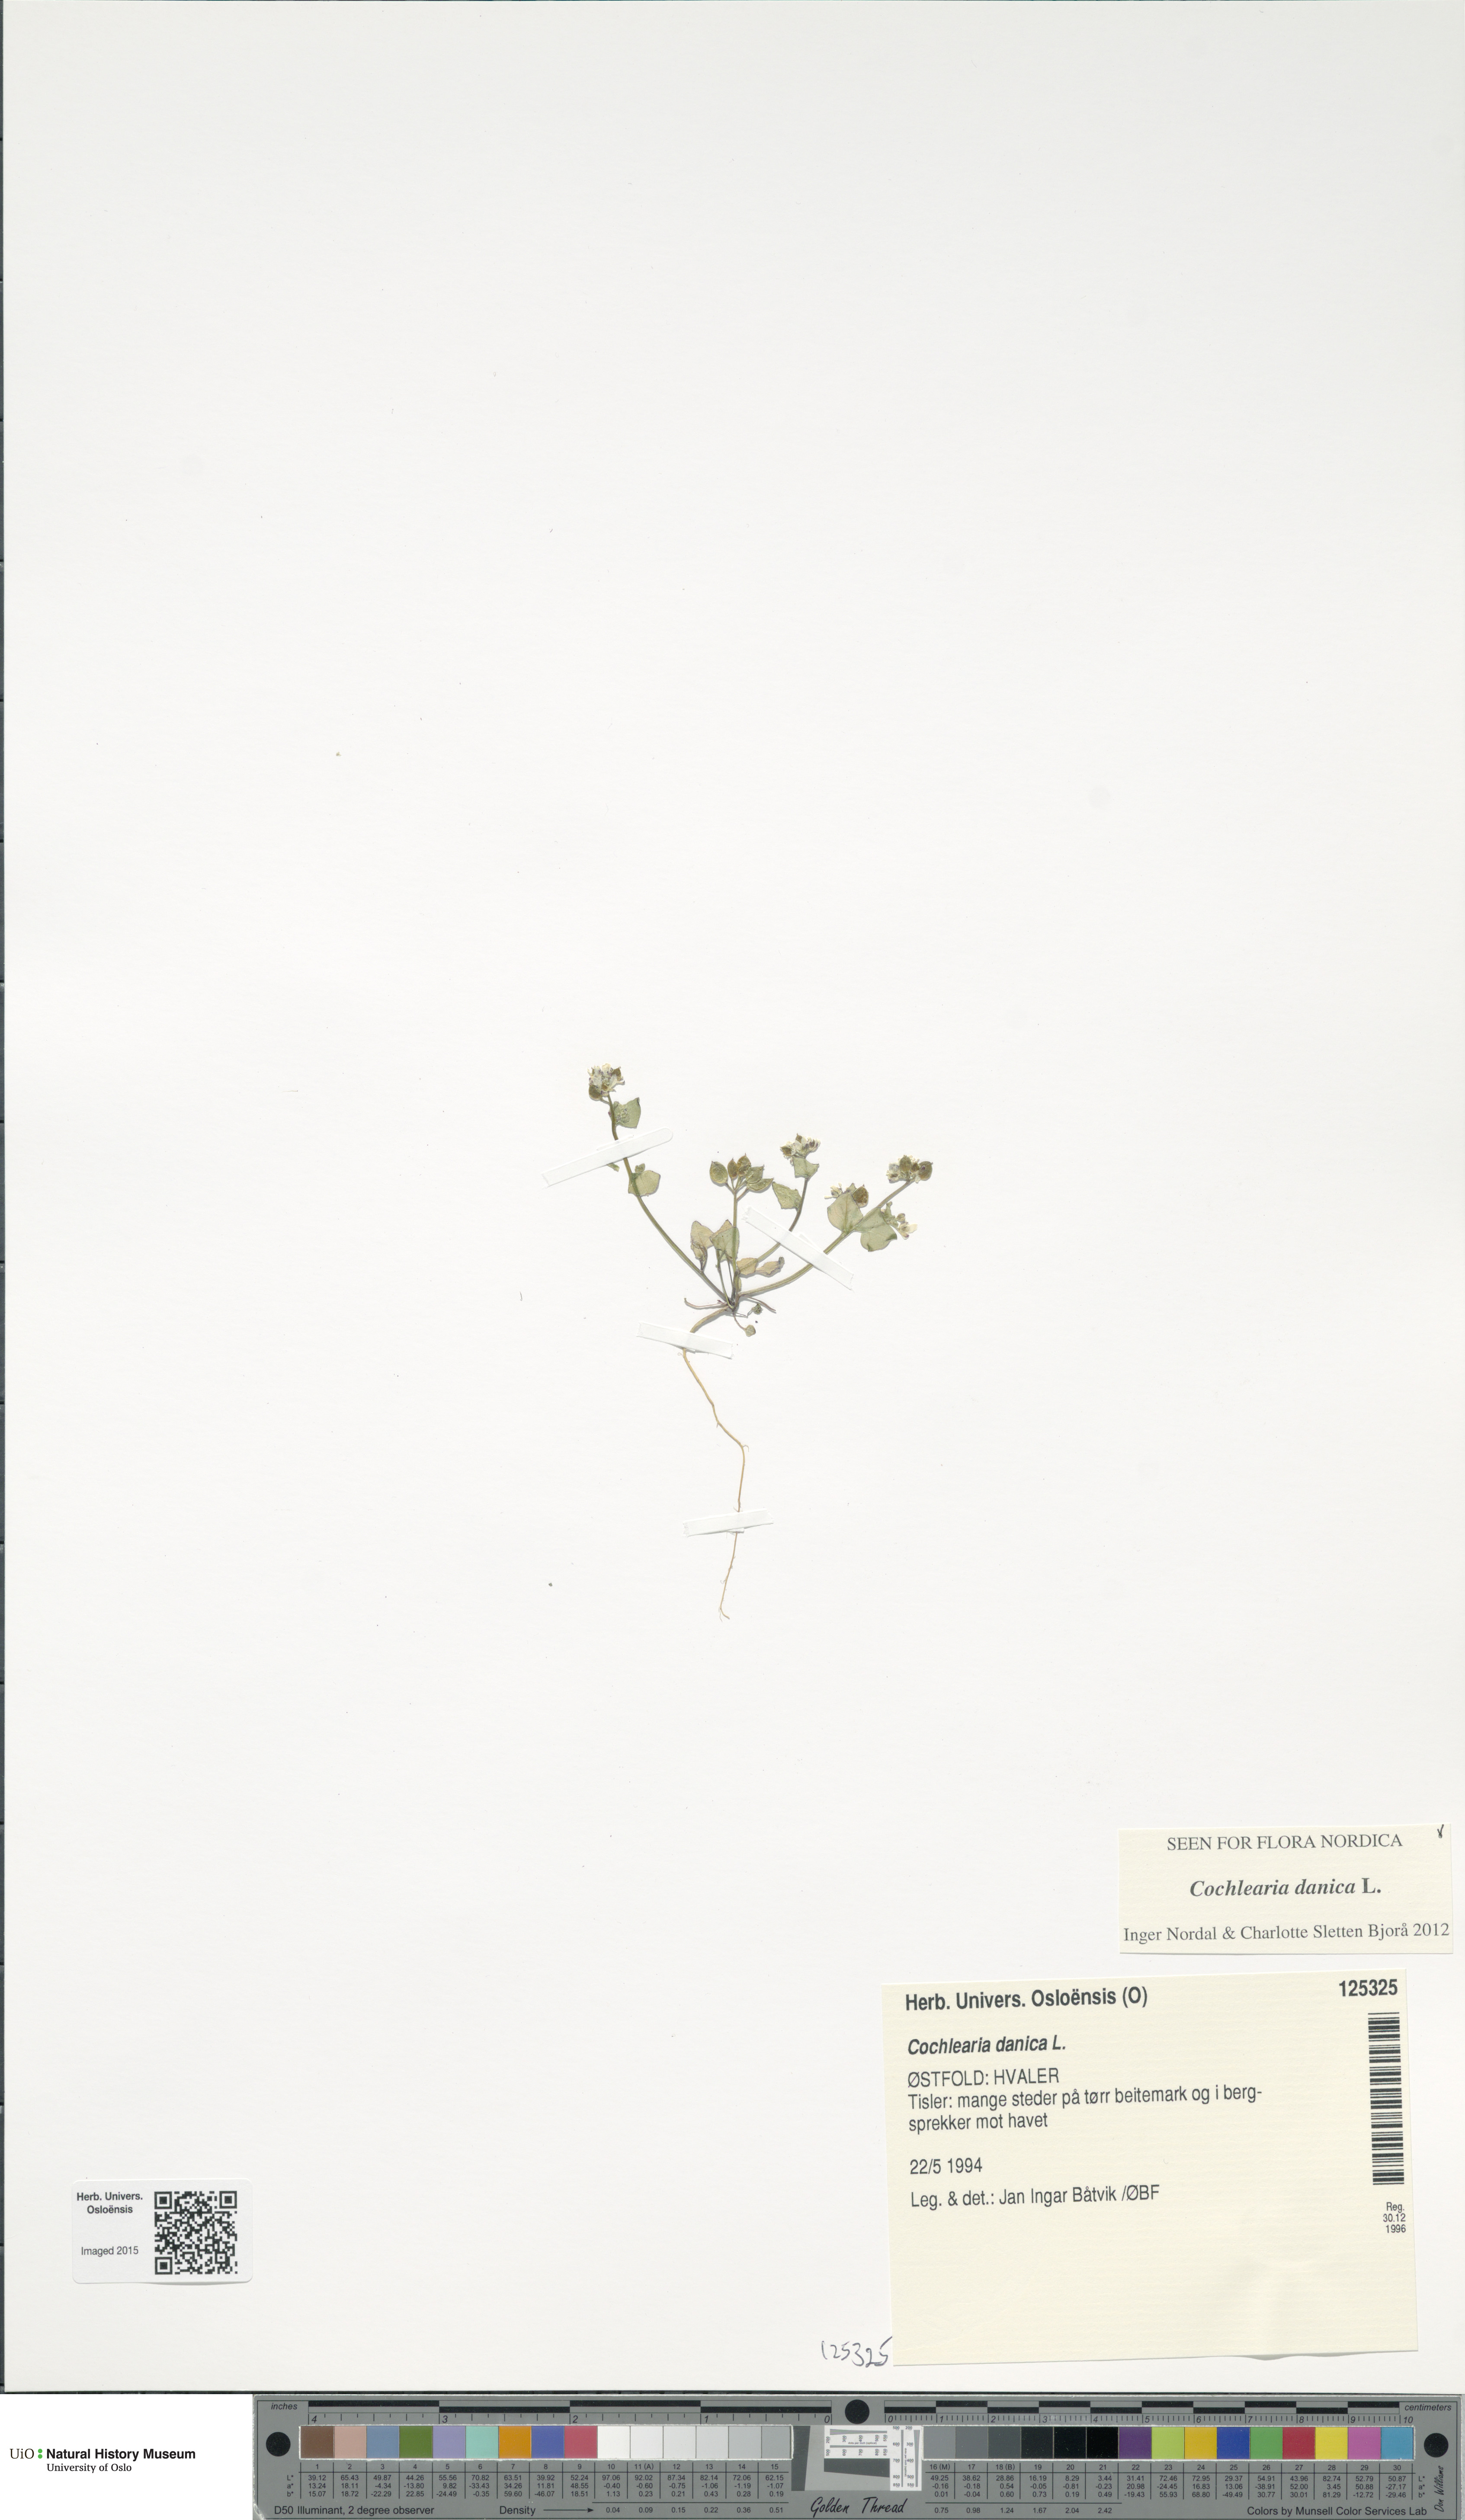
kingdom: Plantae
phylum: Tracheophyta
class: Magnoliopsida
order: Brassicales
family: Brassicaceae
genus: Cochlearia
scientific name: Cochlearia danica
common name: Early scurvygrass
